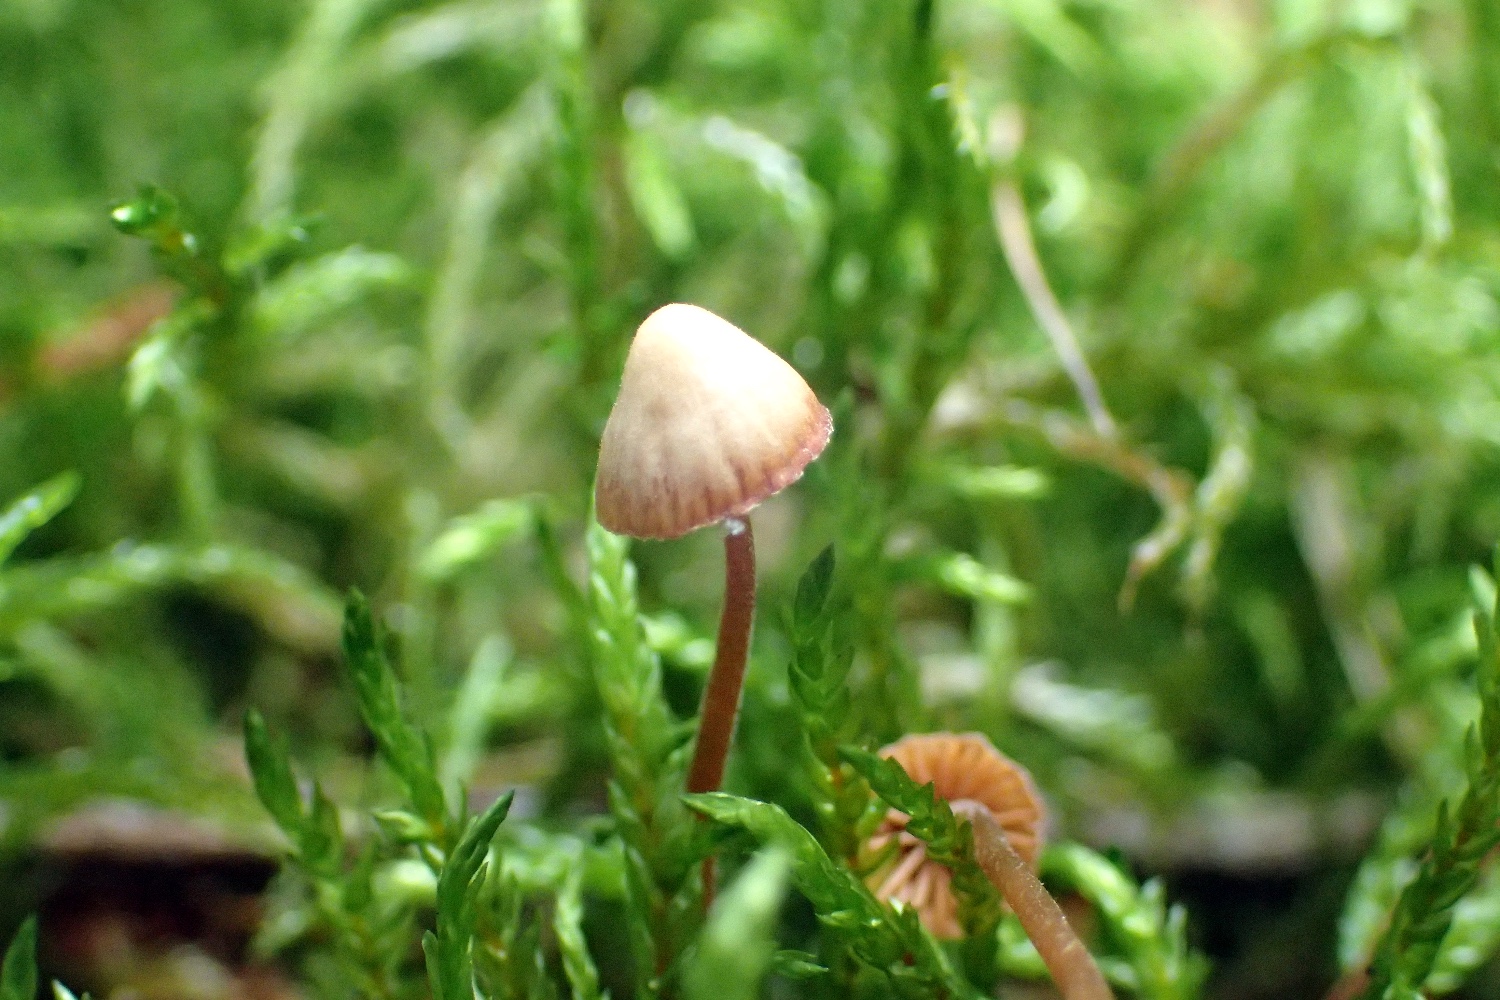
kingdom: Fungi
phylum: Basidiomycota
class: Agaricomycetes
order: Agaricales
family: Hymenogastraceae
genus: Galerina
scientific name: Galerina
